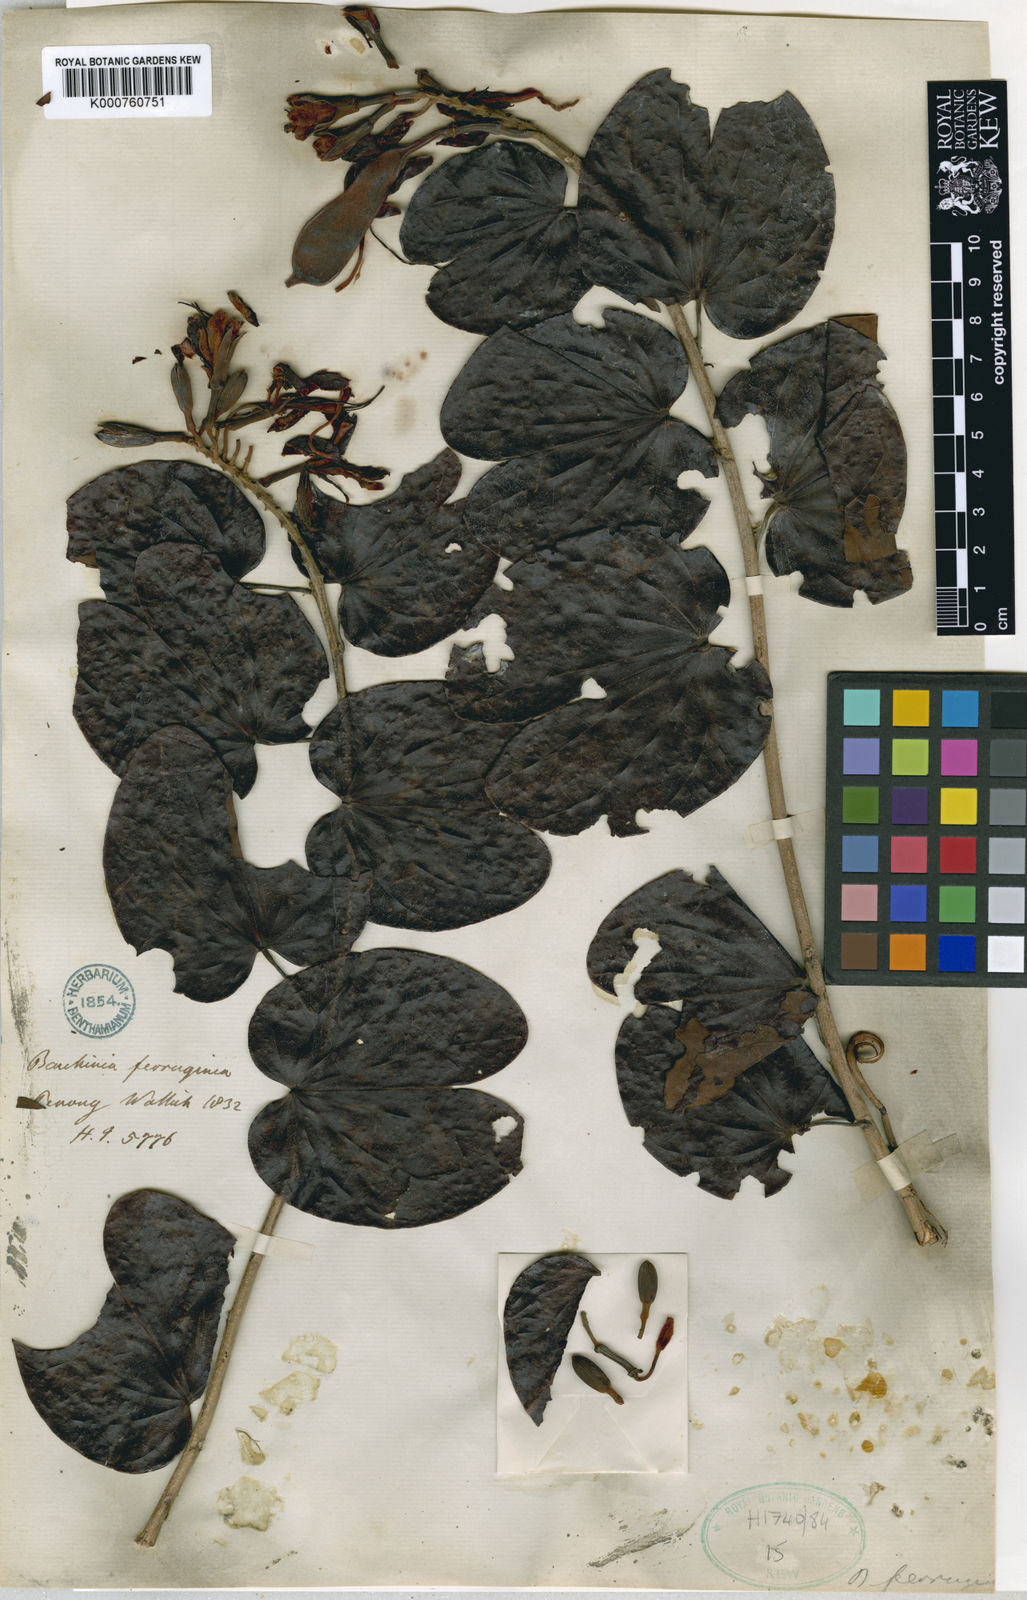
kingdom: Plantae
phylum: Tracheophyta
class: Magnoliopsida
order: Fabales
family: Fabaceae
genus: Phanera
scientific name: Phanera ferruginea
